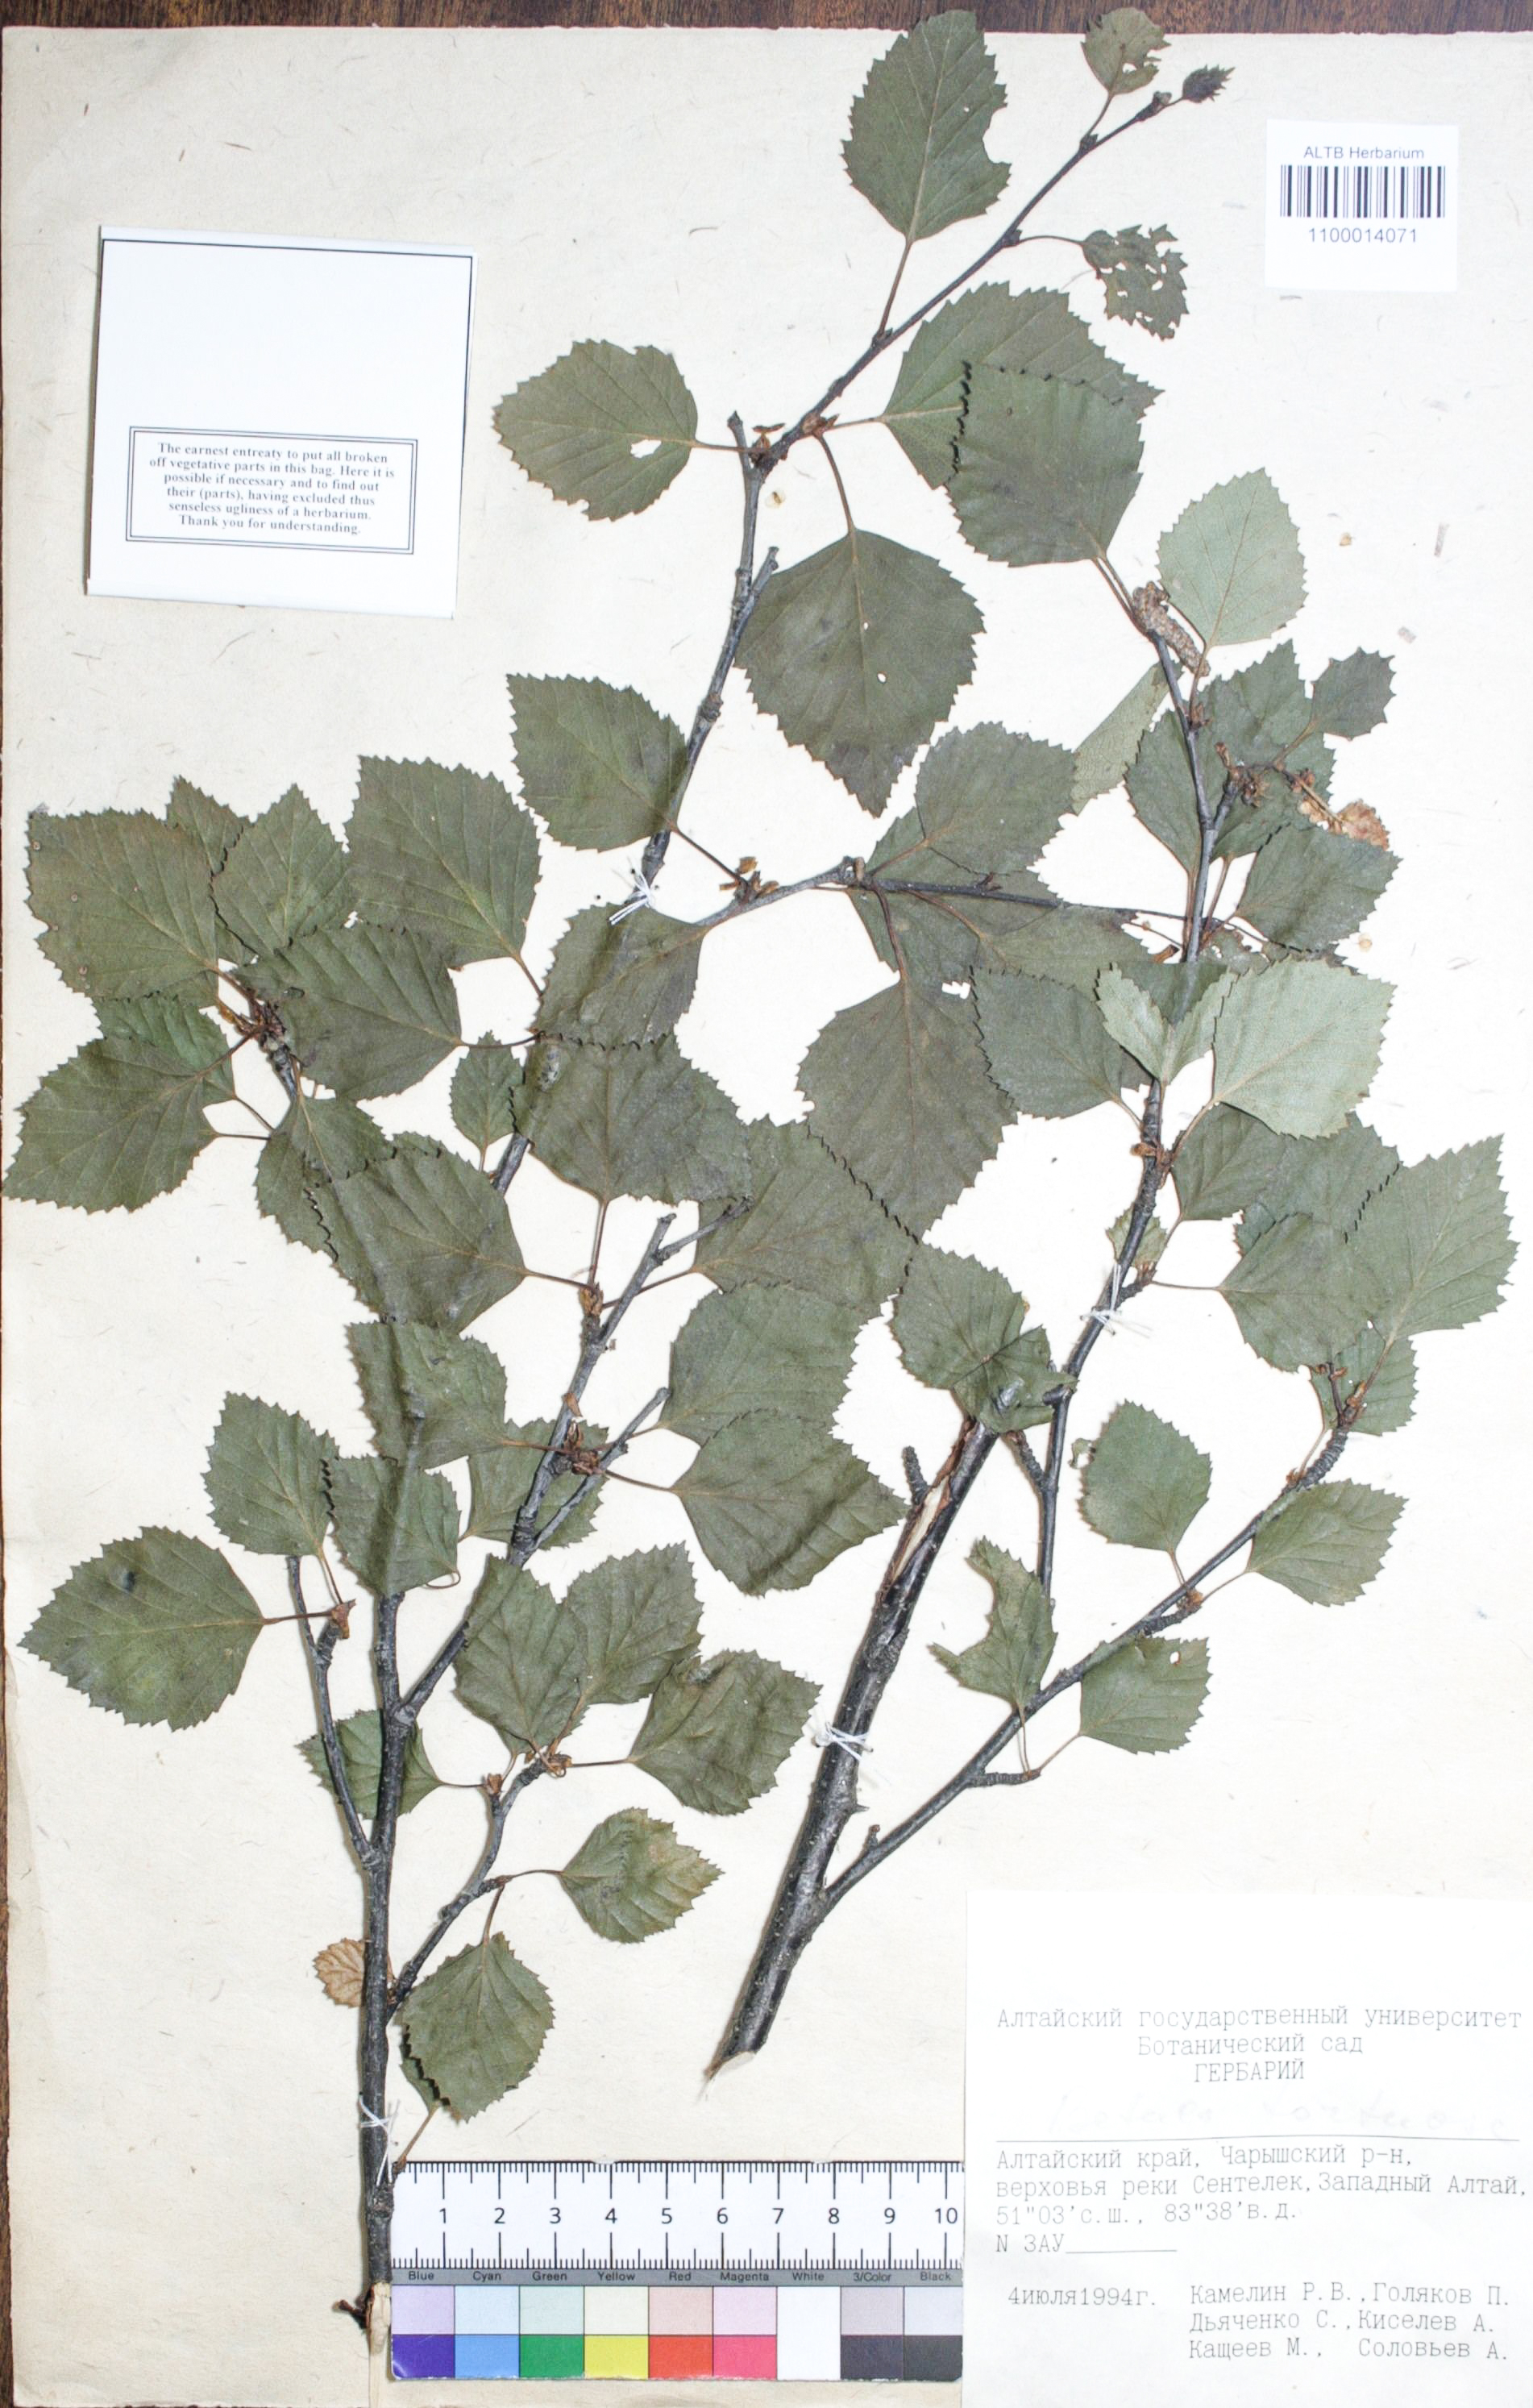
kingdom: Plantae
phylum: Tracheophyta
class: Magnoliopsida
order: Fagales
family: Betulaceae
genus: Betula
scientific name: Betula pubescens
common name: Downy birch
